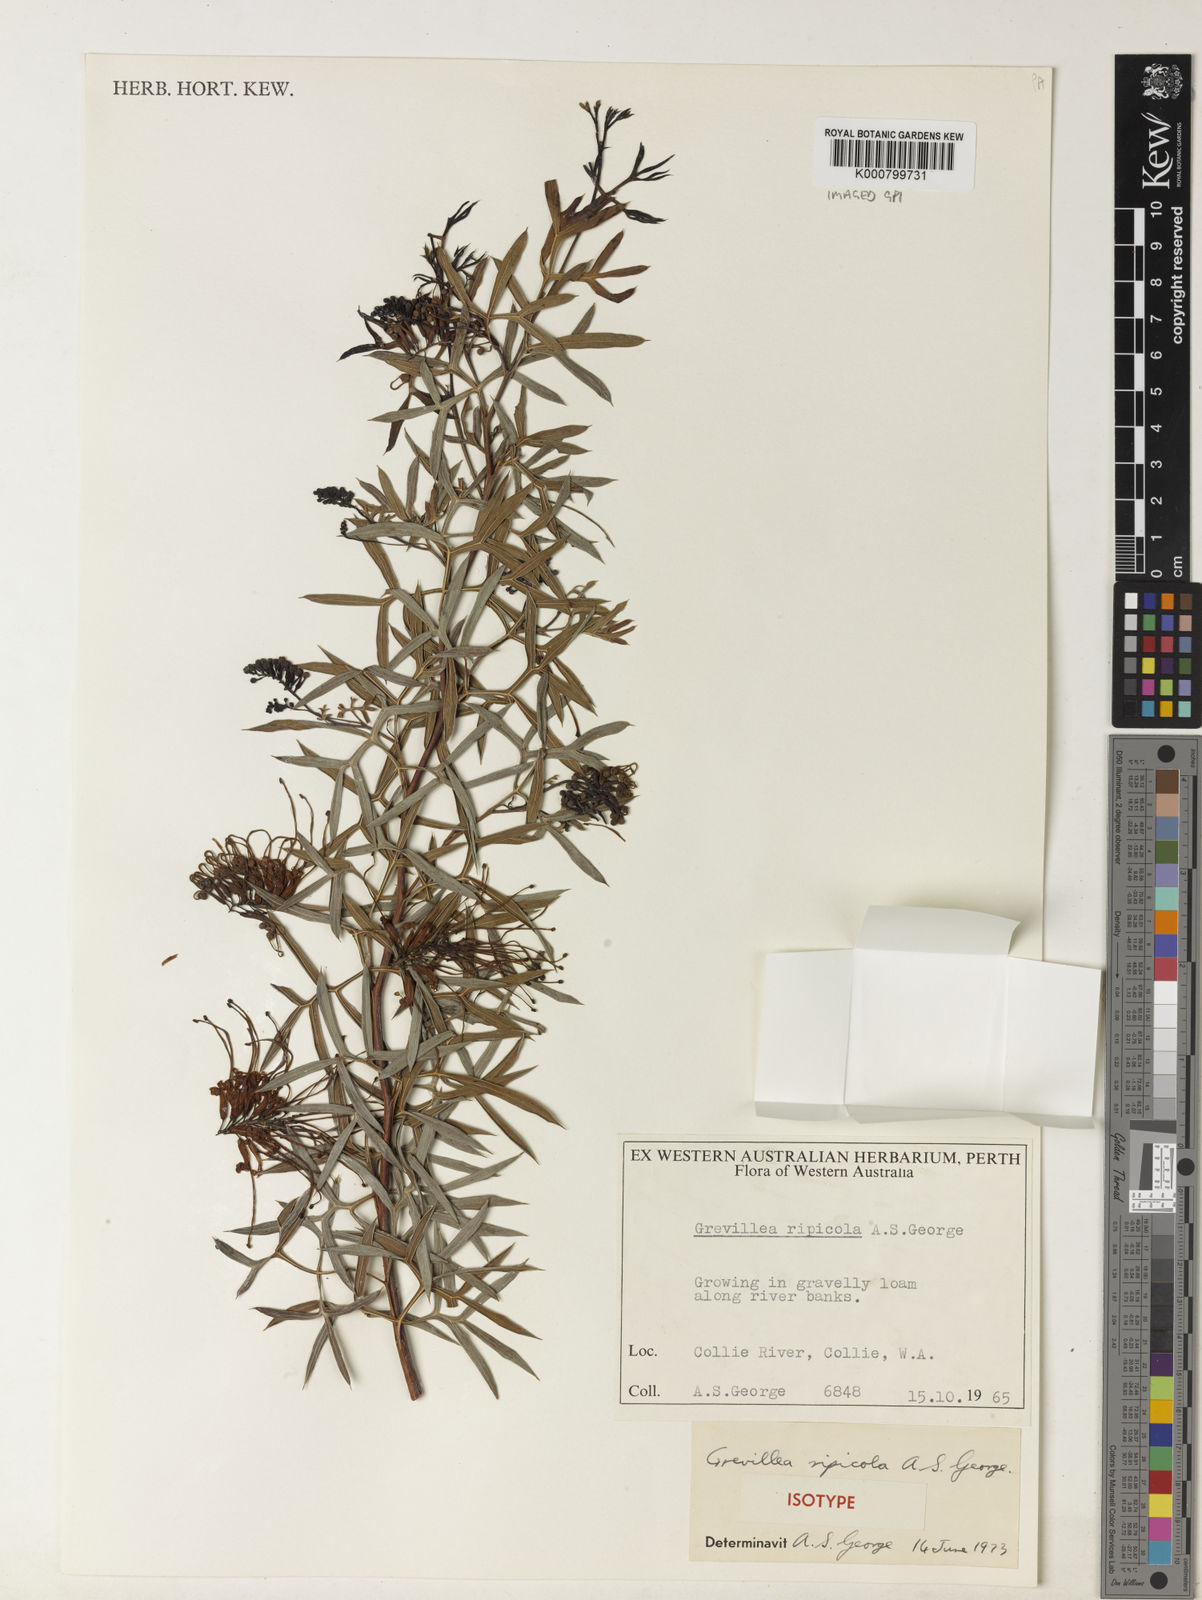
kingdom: Plantae
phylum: Tracheophyta
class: Magnoliopsida
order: Proteales
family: Proteaceae
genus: Grevillea
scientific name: Grevillea ripicola
